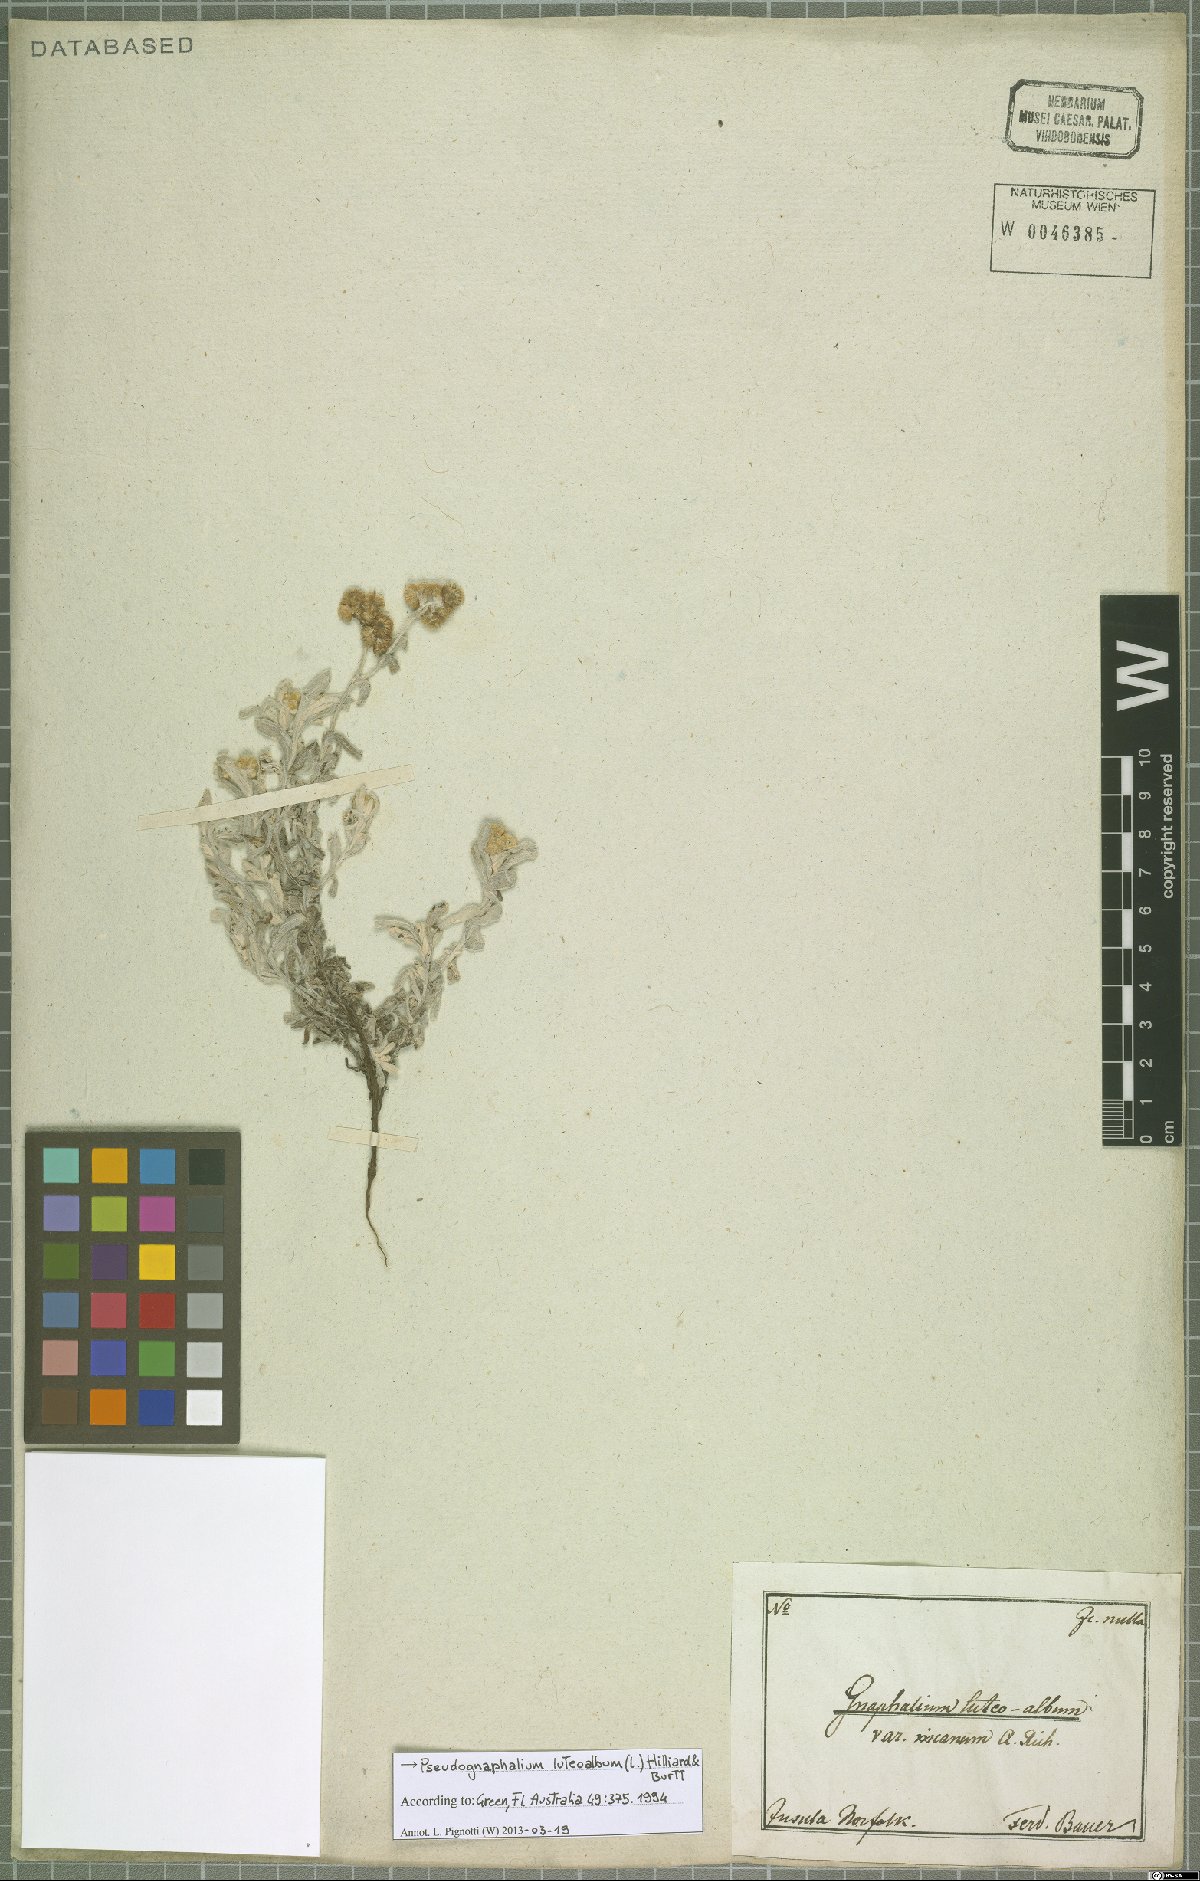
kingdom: Plantae
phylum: Tracheophyta
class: Magnoliopsida
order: Asterales
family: Asteraceae
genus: Helichrysum
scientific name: Helichrysum luteoalbum
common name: Daisy
